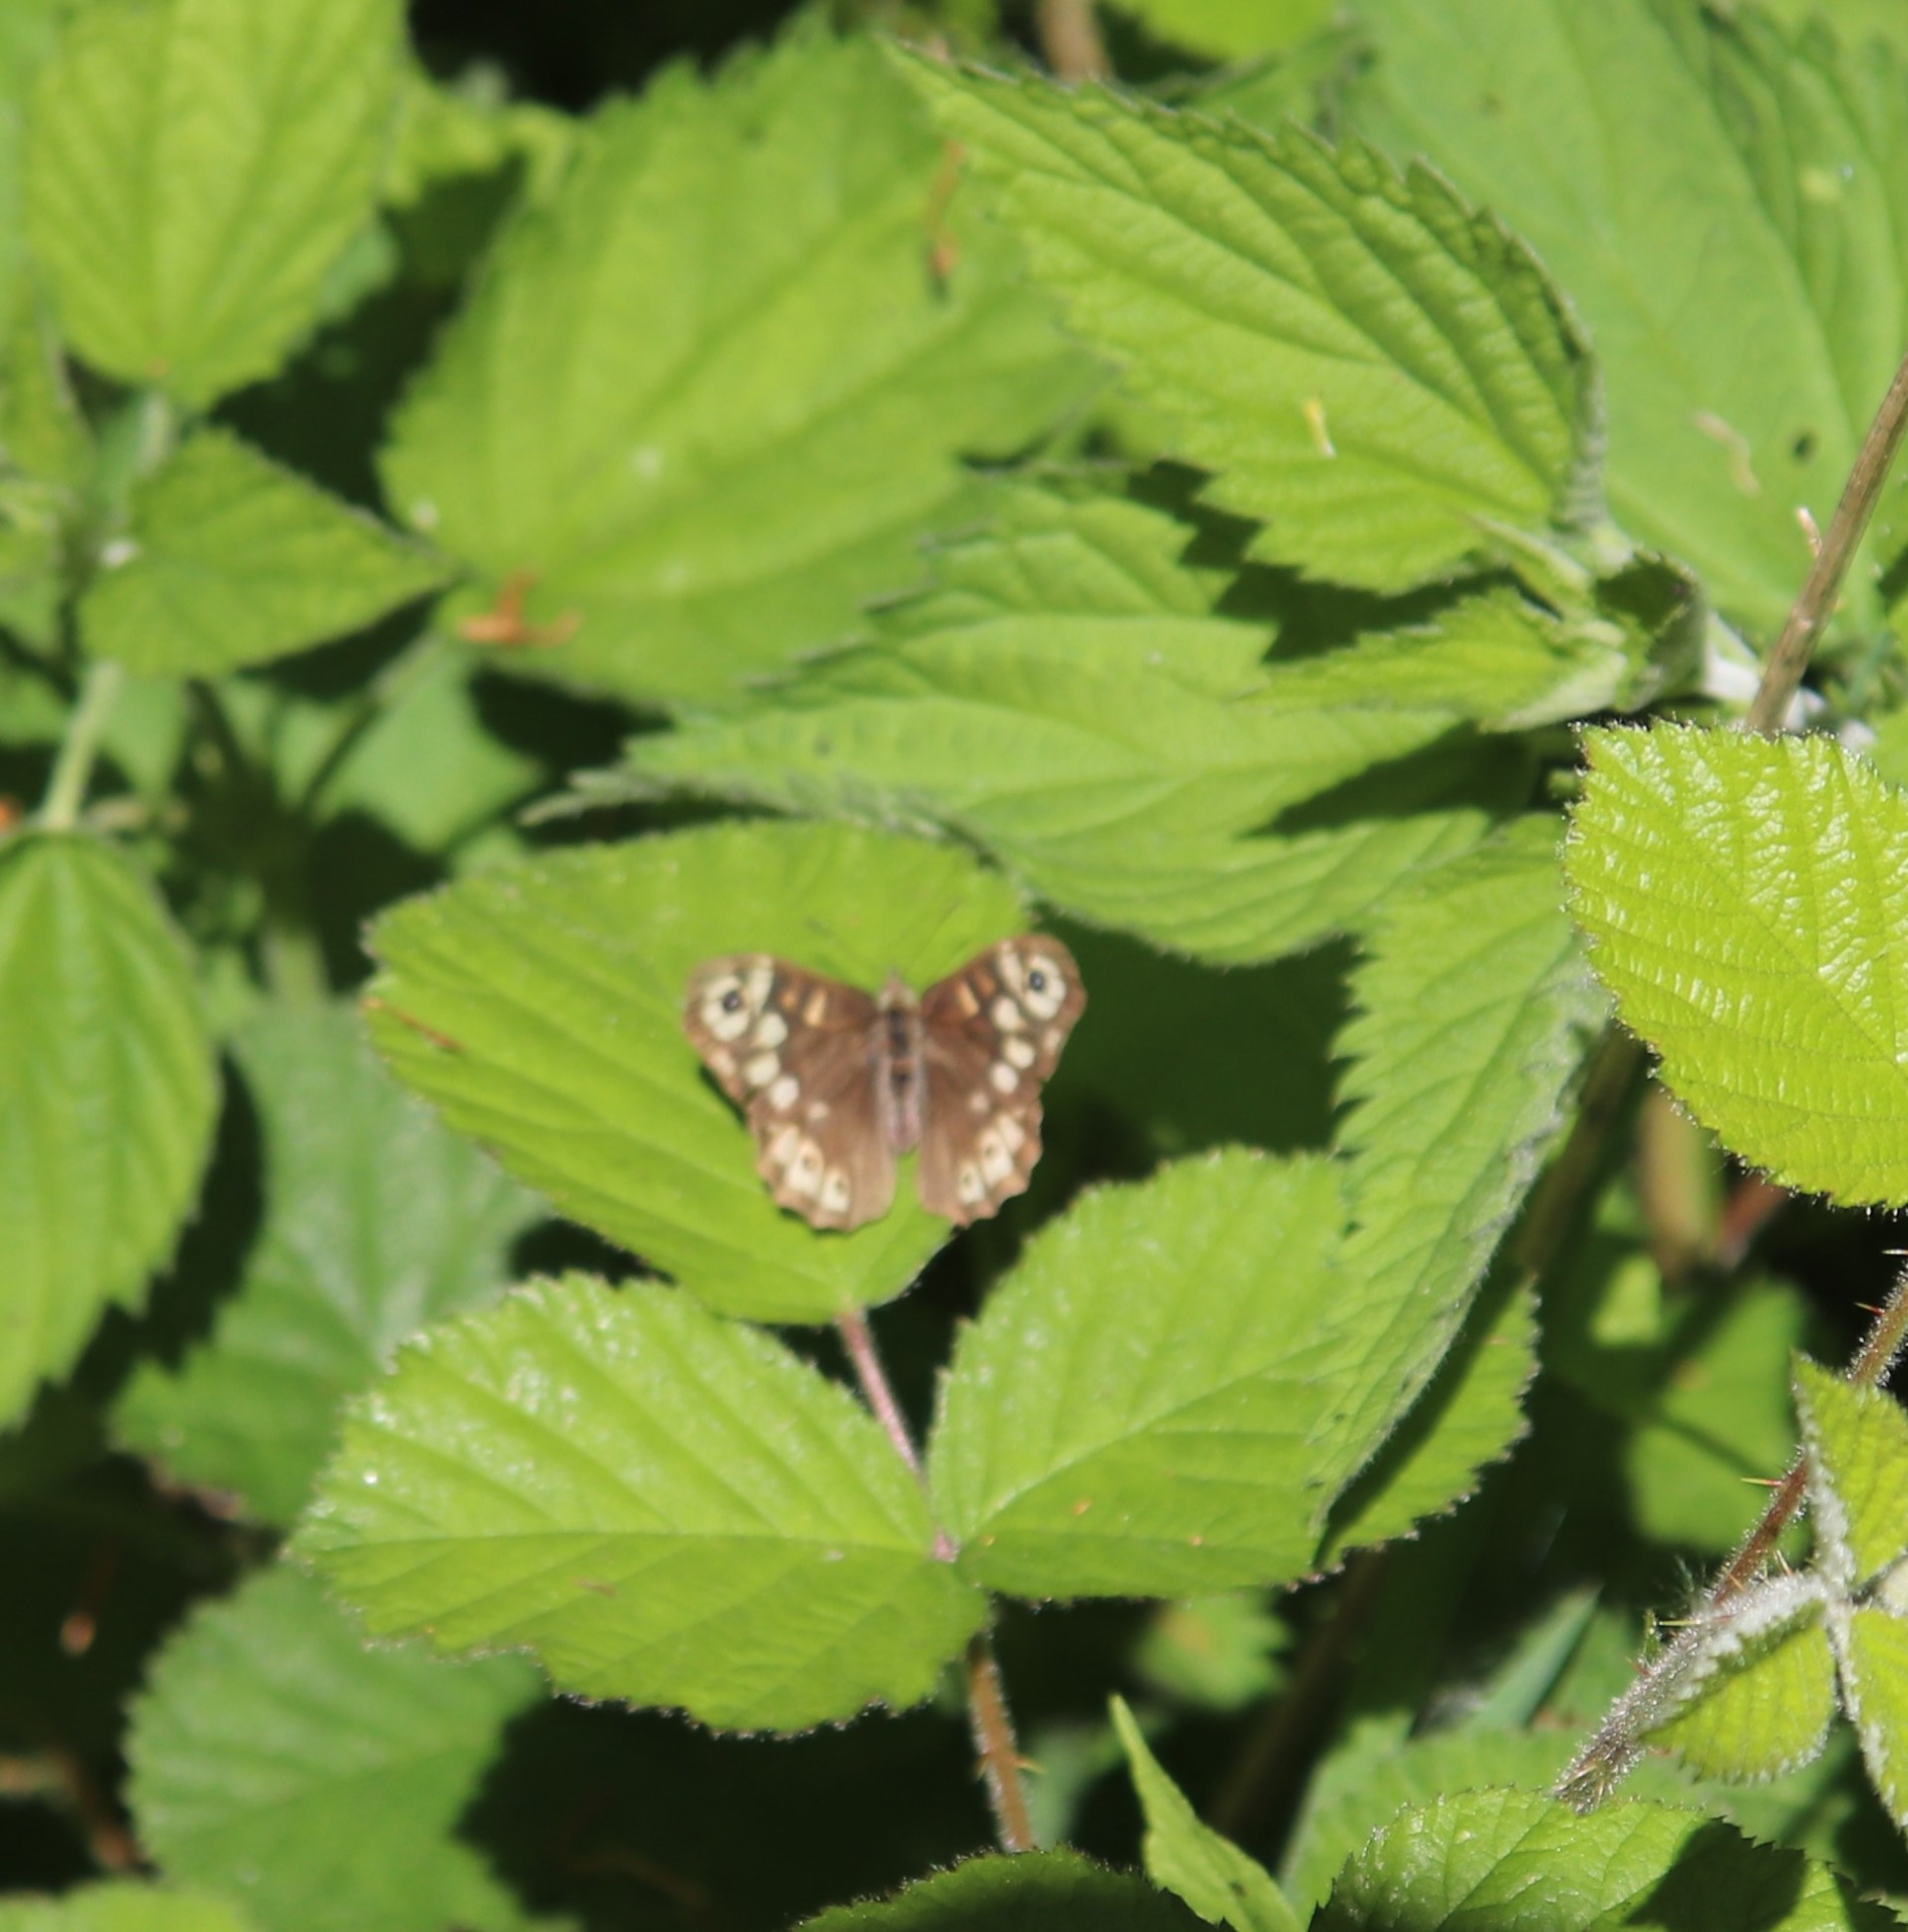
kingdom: Animalia
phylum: Arthropoda
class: Insecta
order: Lepidoptera
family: Nymphalidae
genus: Pararge
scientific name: Pararge aegeria
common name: Skovrandøje
